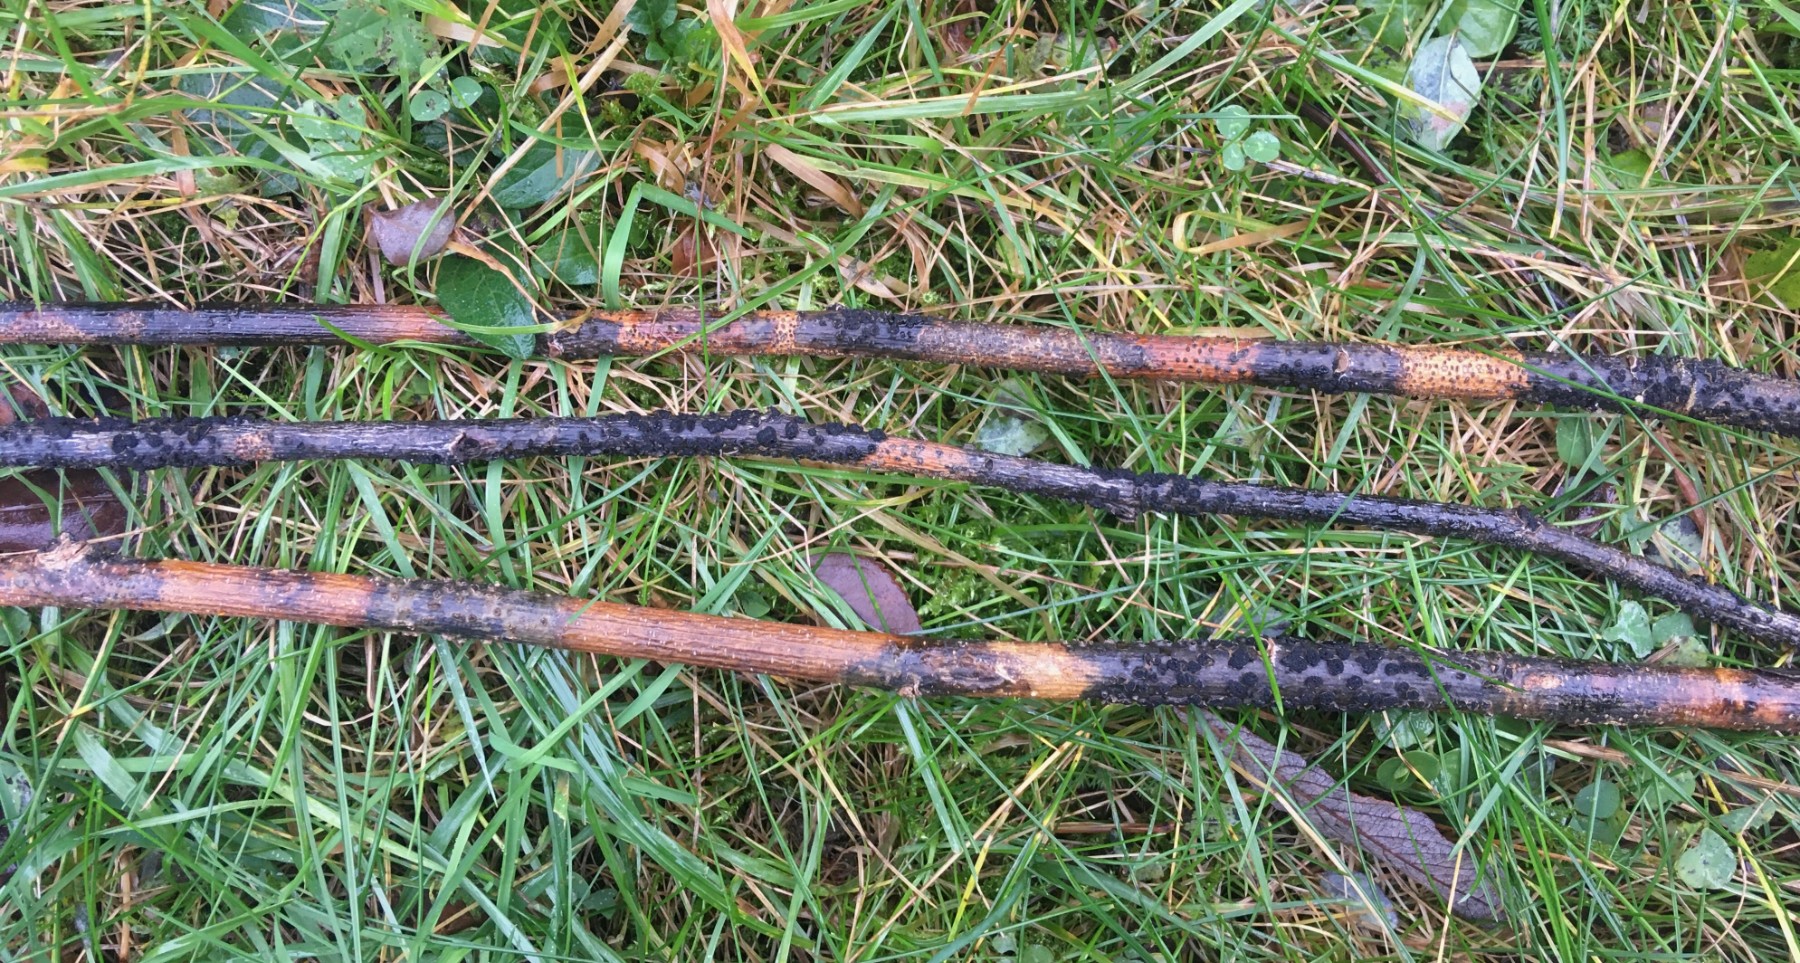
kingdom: Fungi
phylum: Ascomycota
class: Dothideomycetes
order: Pleosporales
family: Camarosporidiellaceae
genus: Camarosporidiella
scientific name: Camarosporidiella laburni
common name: guldregn-tykbær
